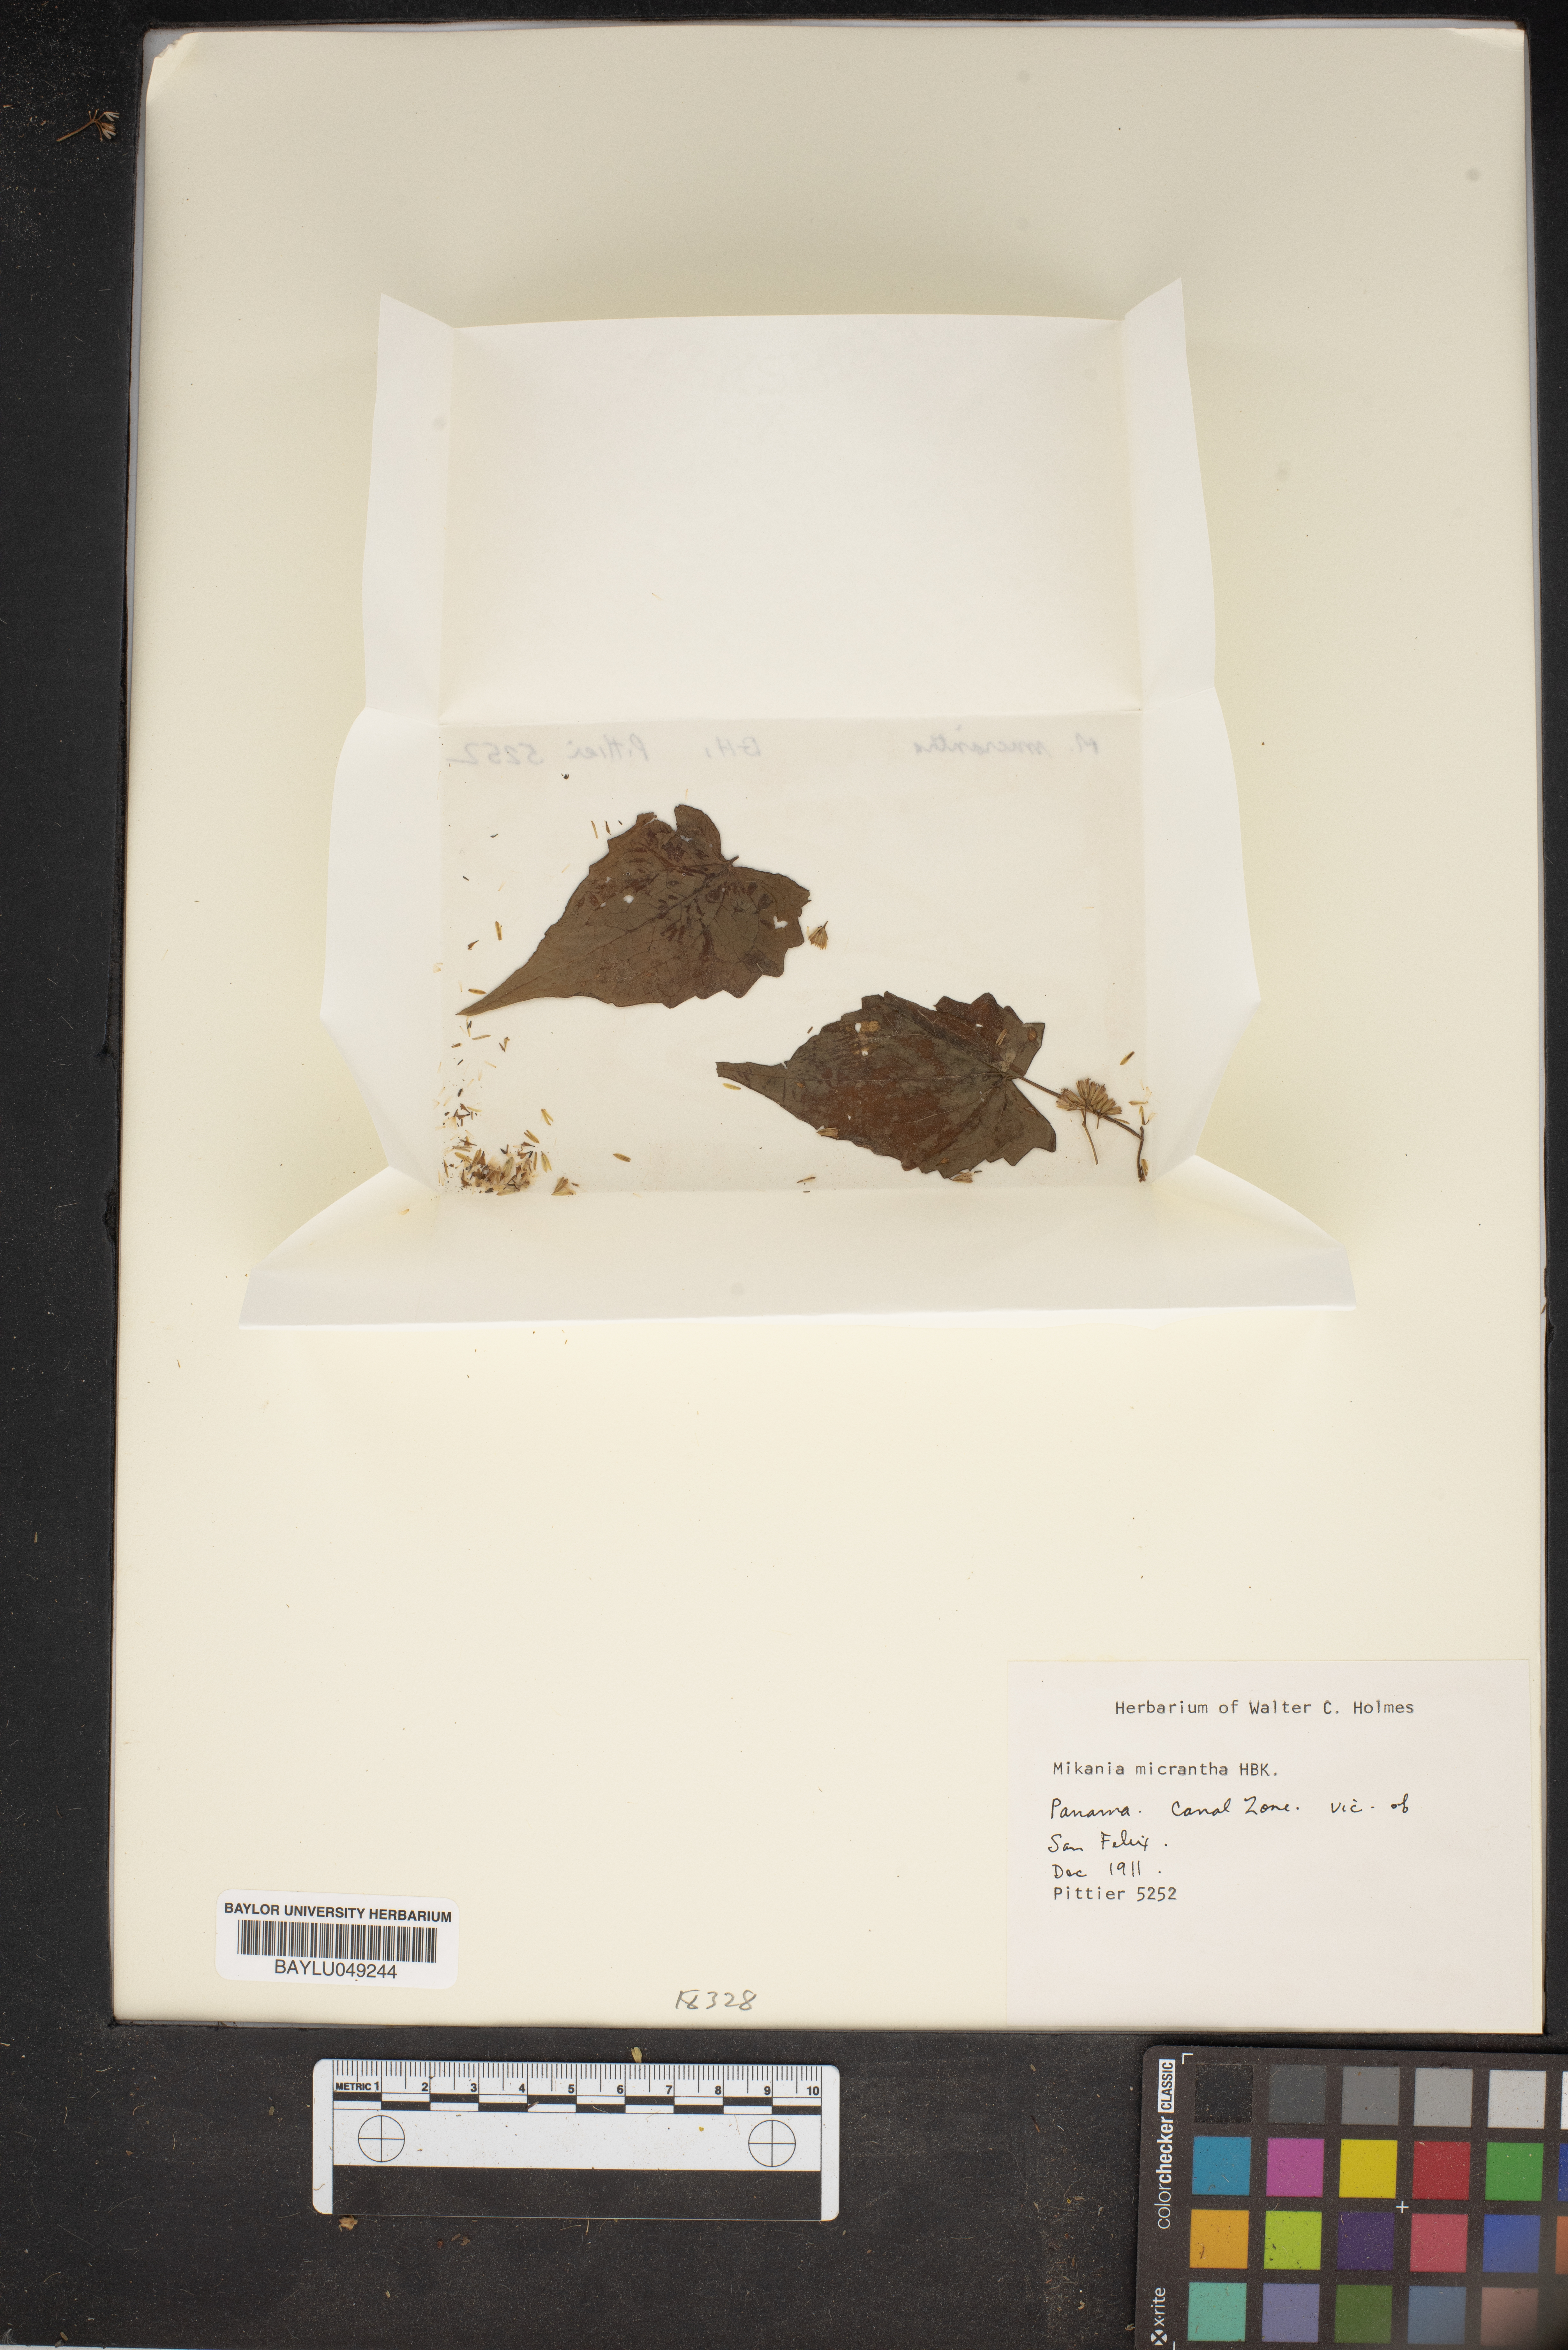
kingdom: Plantae
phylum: Tracheophyta
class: Magnoliopsida
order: Asterales
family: Asteraceae
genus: Mikania
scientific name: Mikania micrantha
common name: Mile-a-minute
